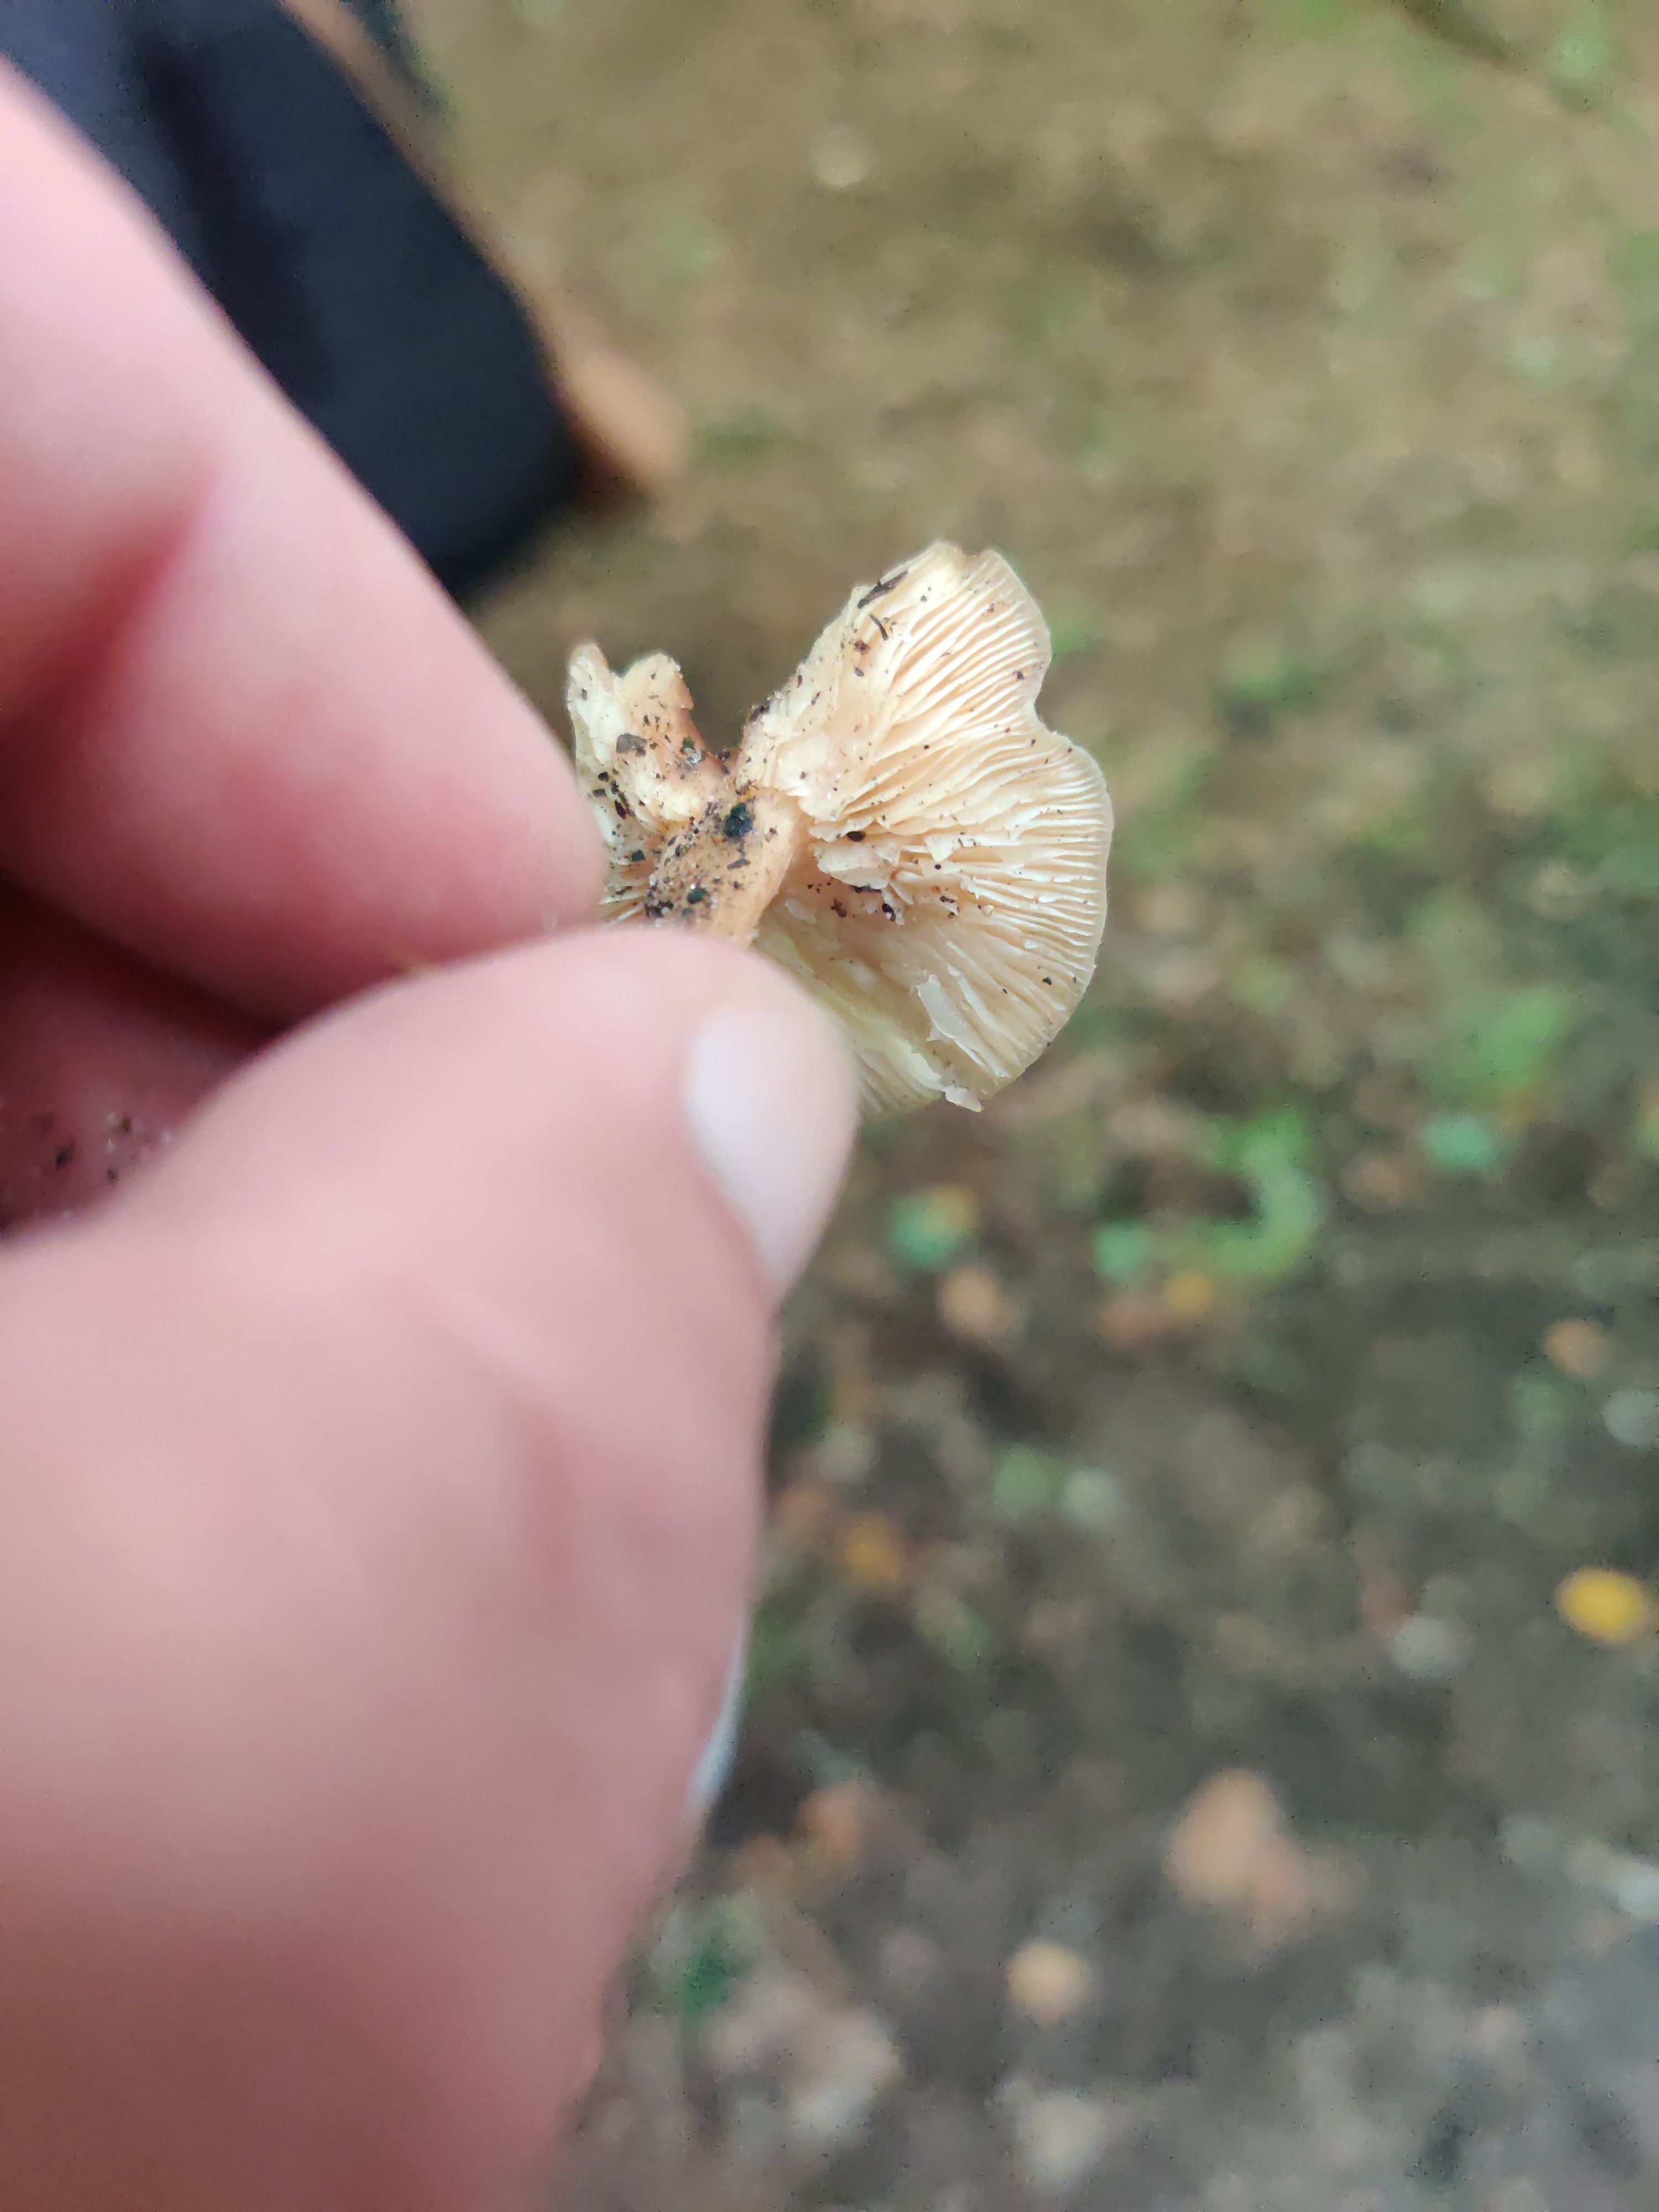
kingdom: Fungi
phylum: Basidiomycota
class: Agaricomycetes
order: Agaricales
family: Omphalotaceae
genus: Gymnopus
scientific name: Gymnopus
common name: fladhat
